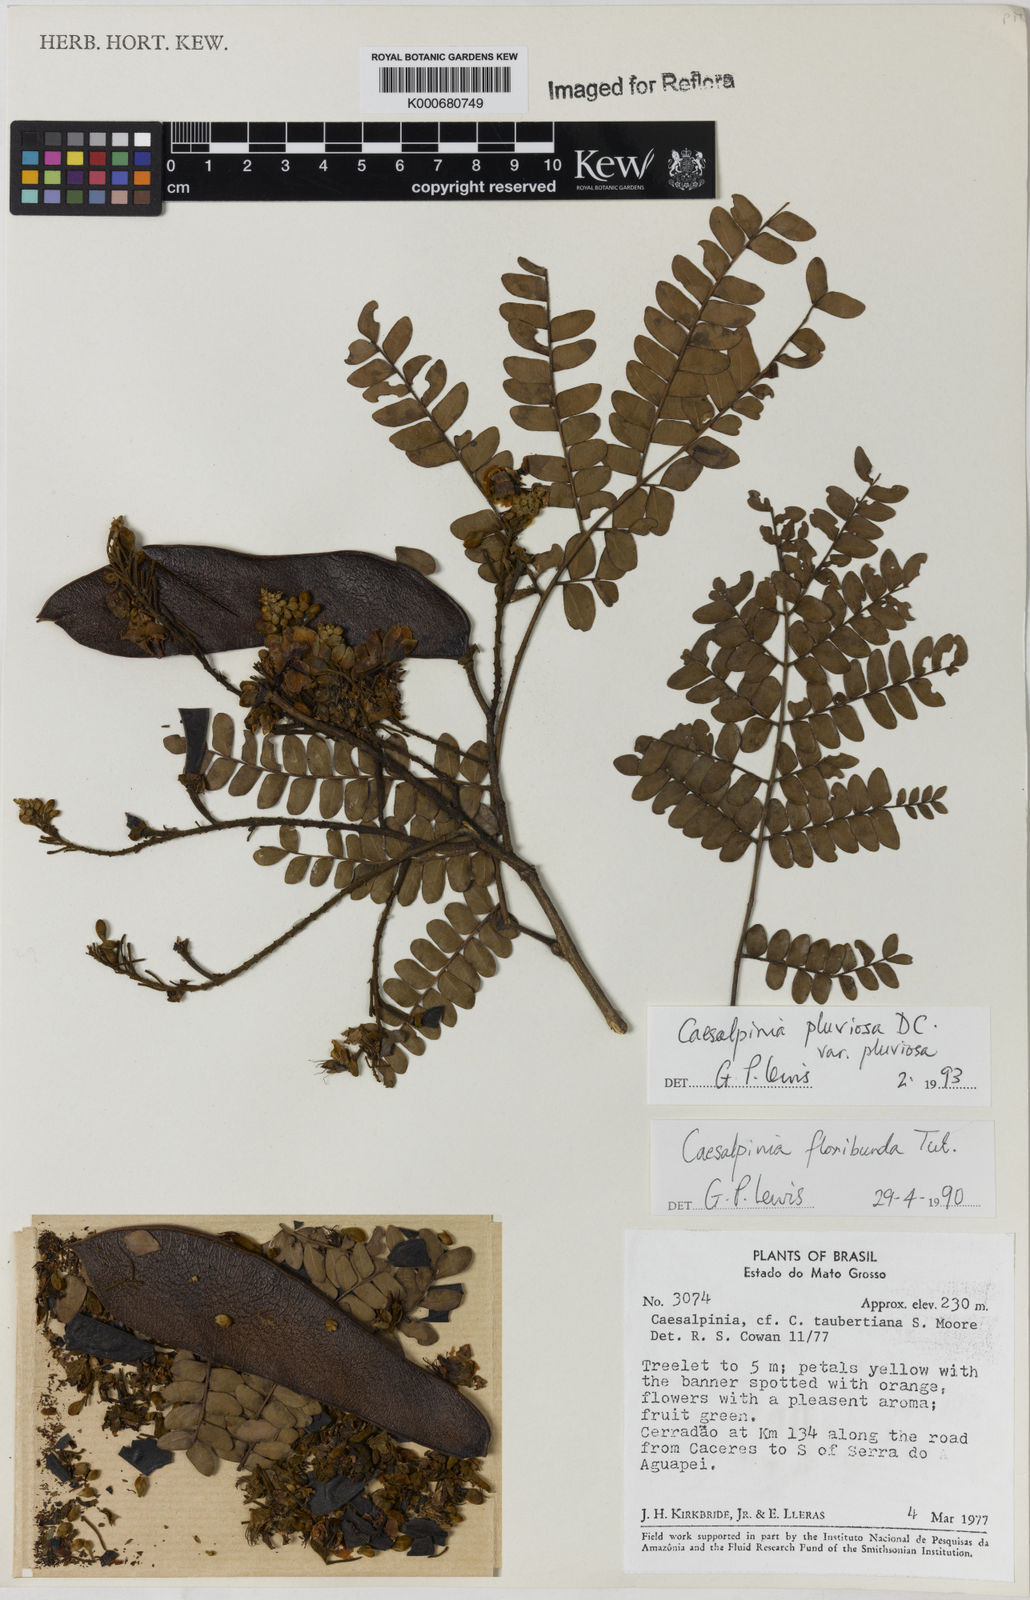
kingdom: Plantae
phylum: Tracheophyta
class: Magnoliopsida
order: Fabales
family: Fabaceae
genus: Cenostigma
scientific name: Cenostigma pluviosum
